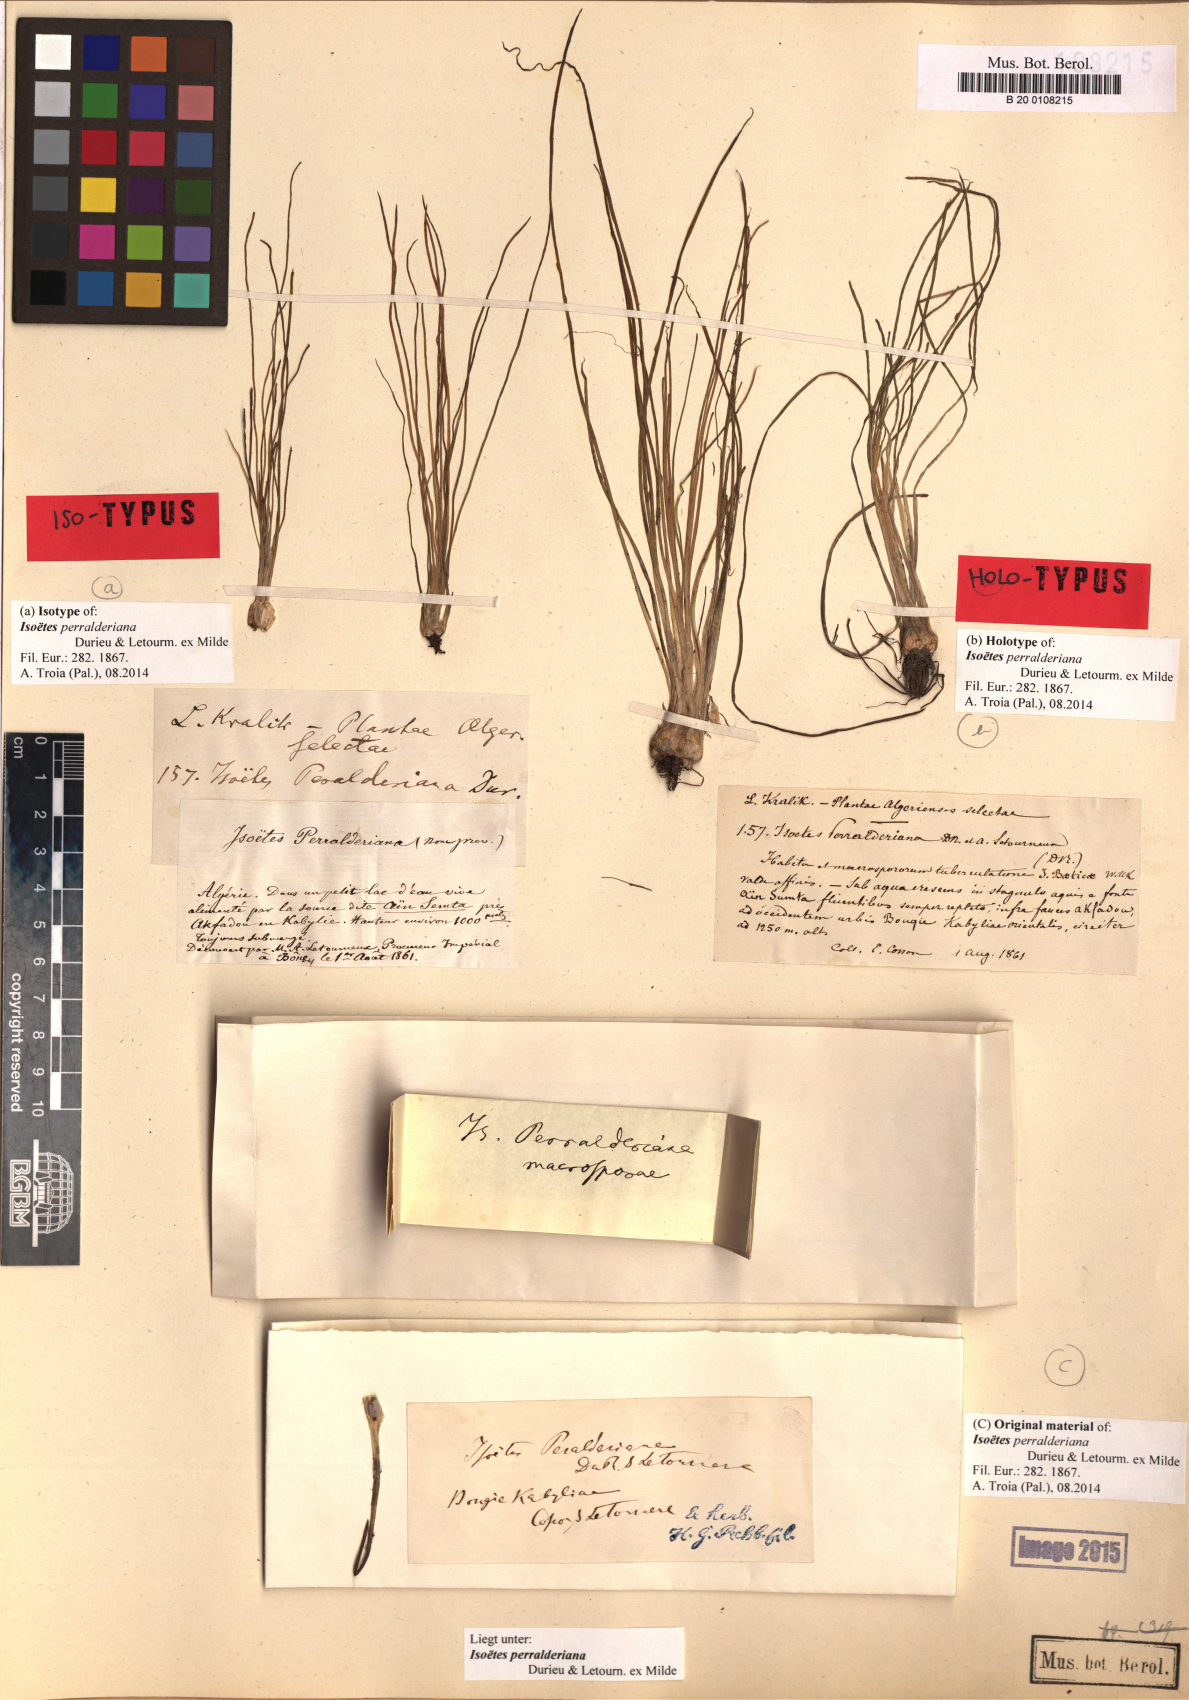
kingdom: Plantae
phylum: Tracheophyta
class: Lycopodiopsida
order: Isoetales
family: Isoetaceae
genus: Isoetes
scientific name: Isoetes longissima
